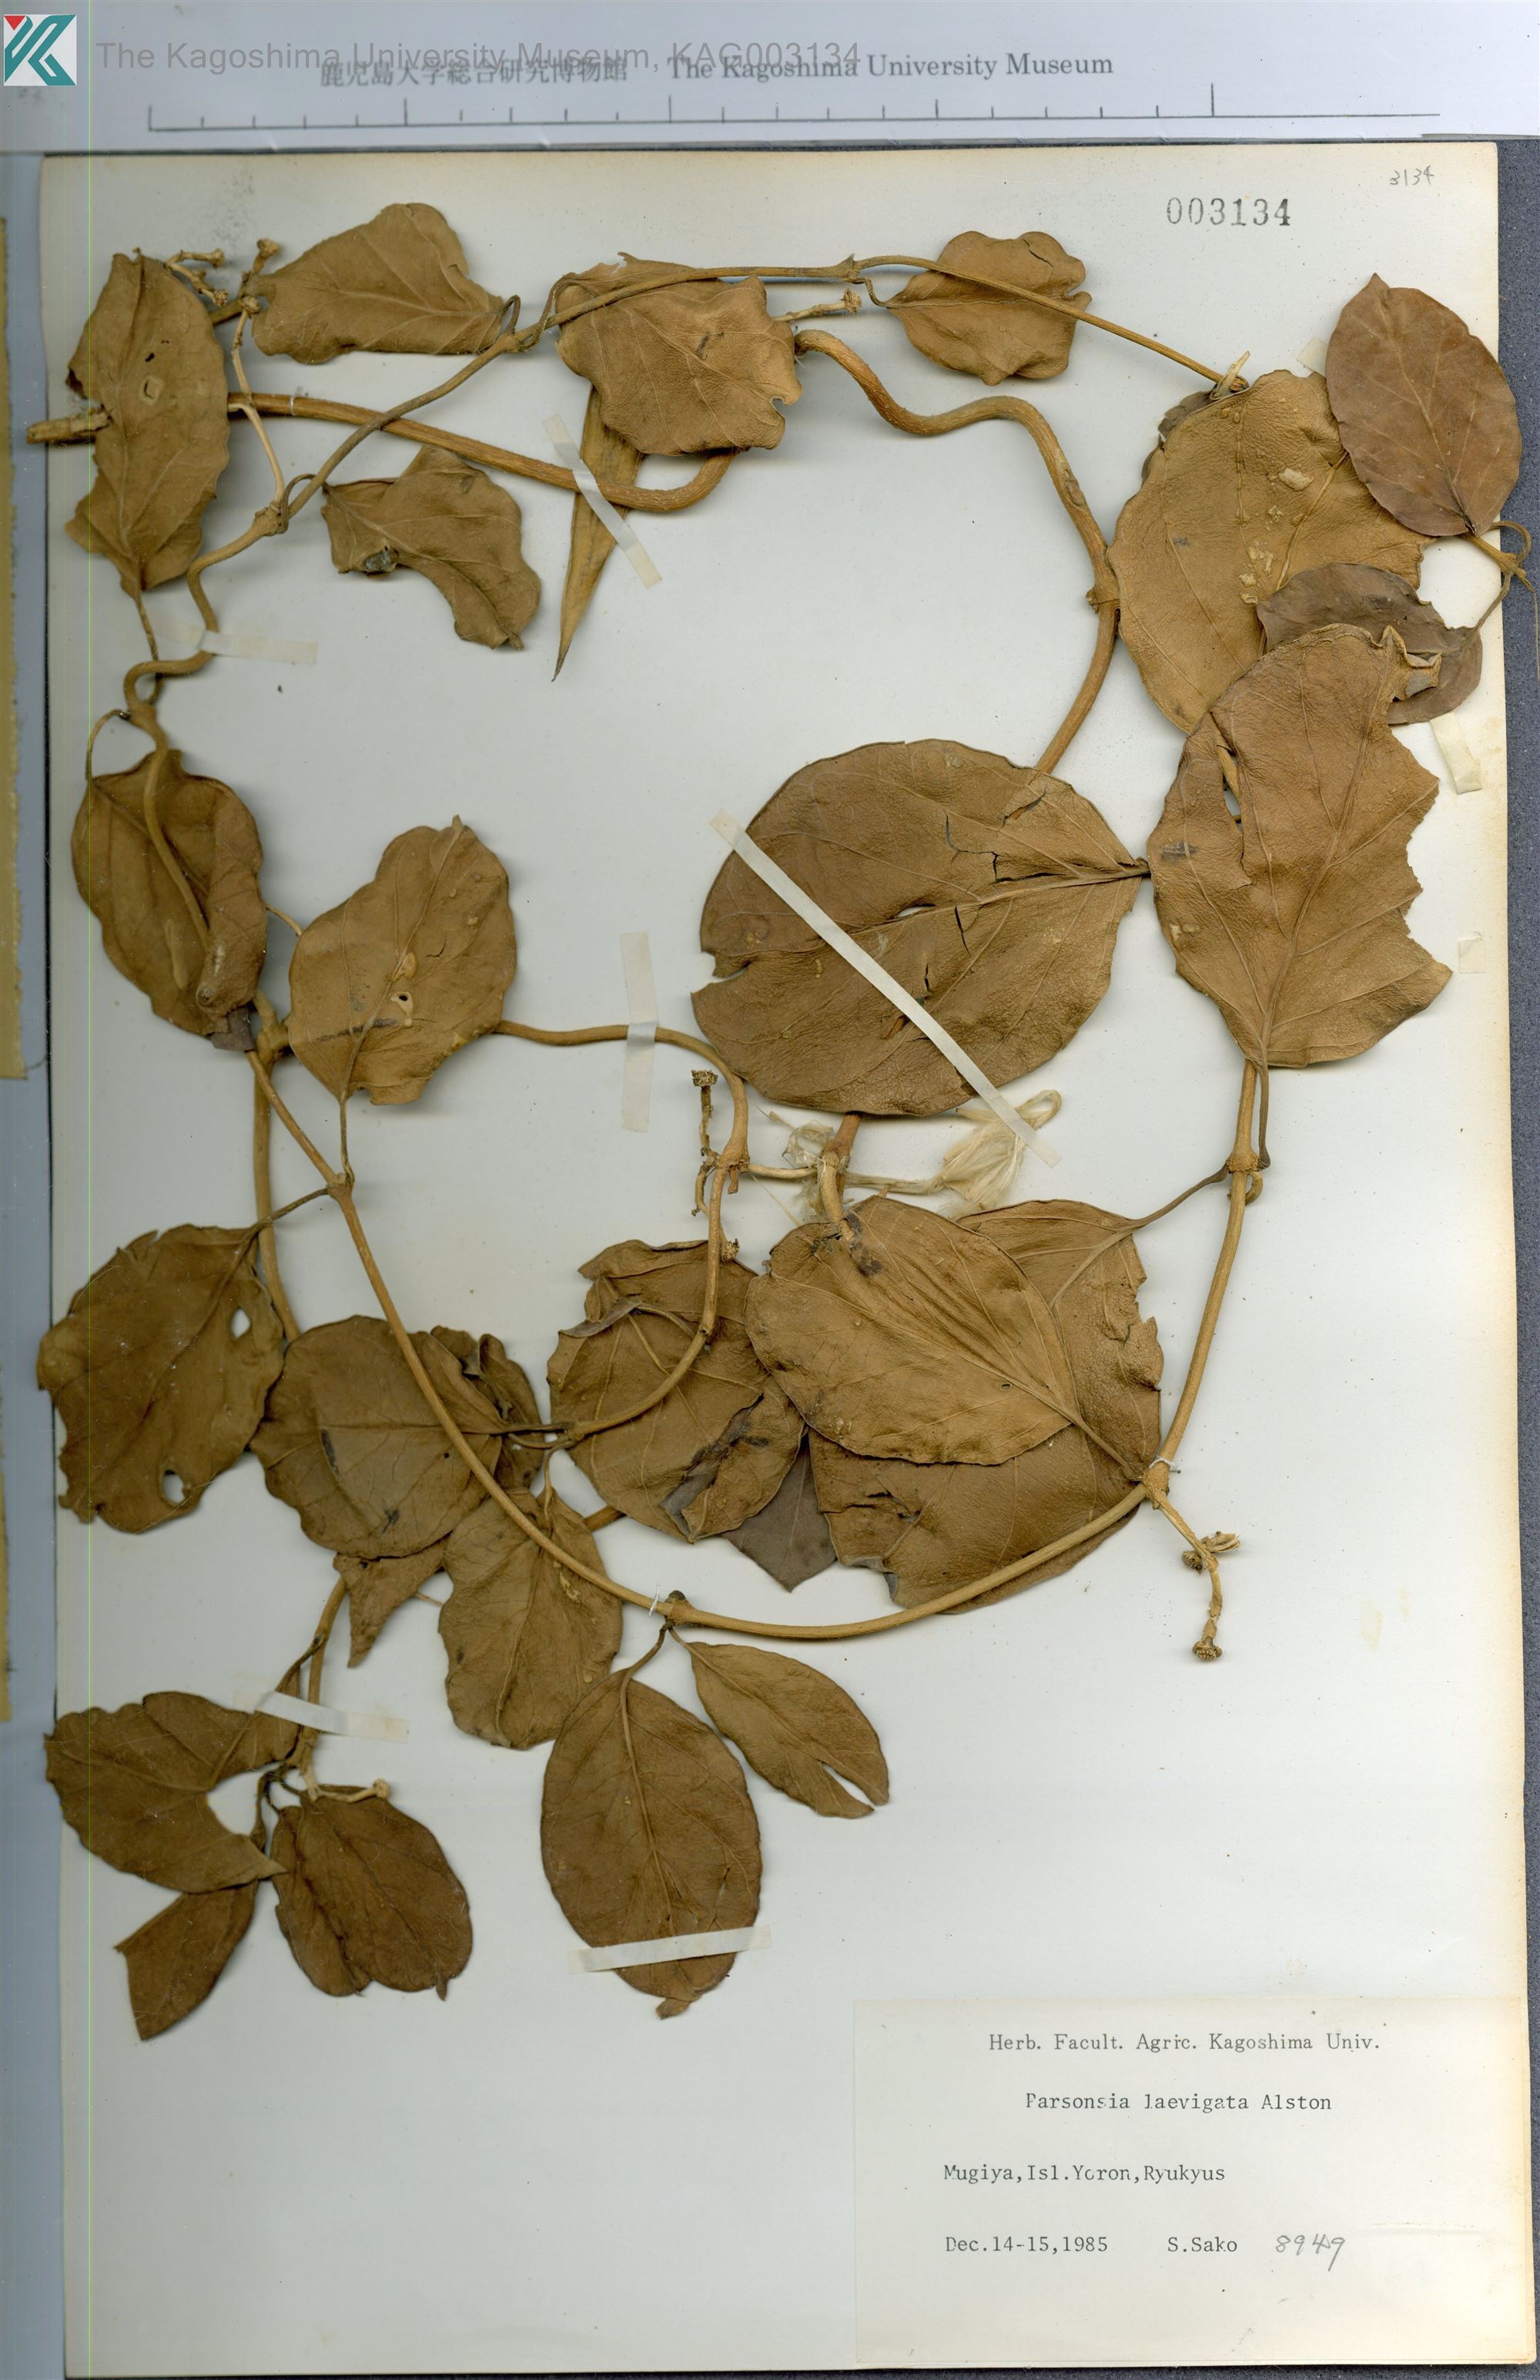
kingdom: Plantae
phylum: Tracheophyta
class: Magnoliopsida
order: Gentianales
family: Apocynaceae
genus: Parsonsia
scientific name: Parsonsia alboflavescens
